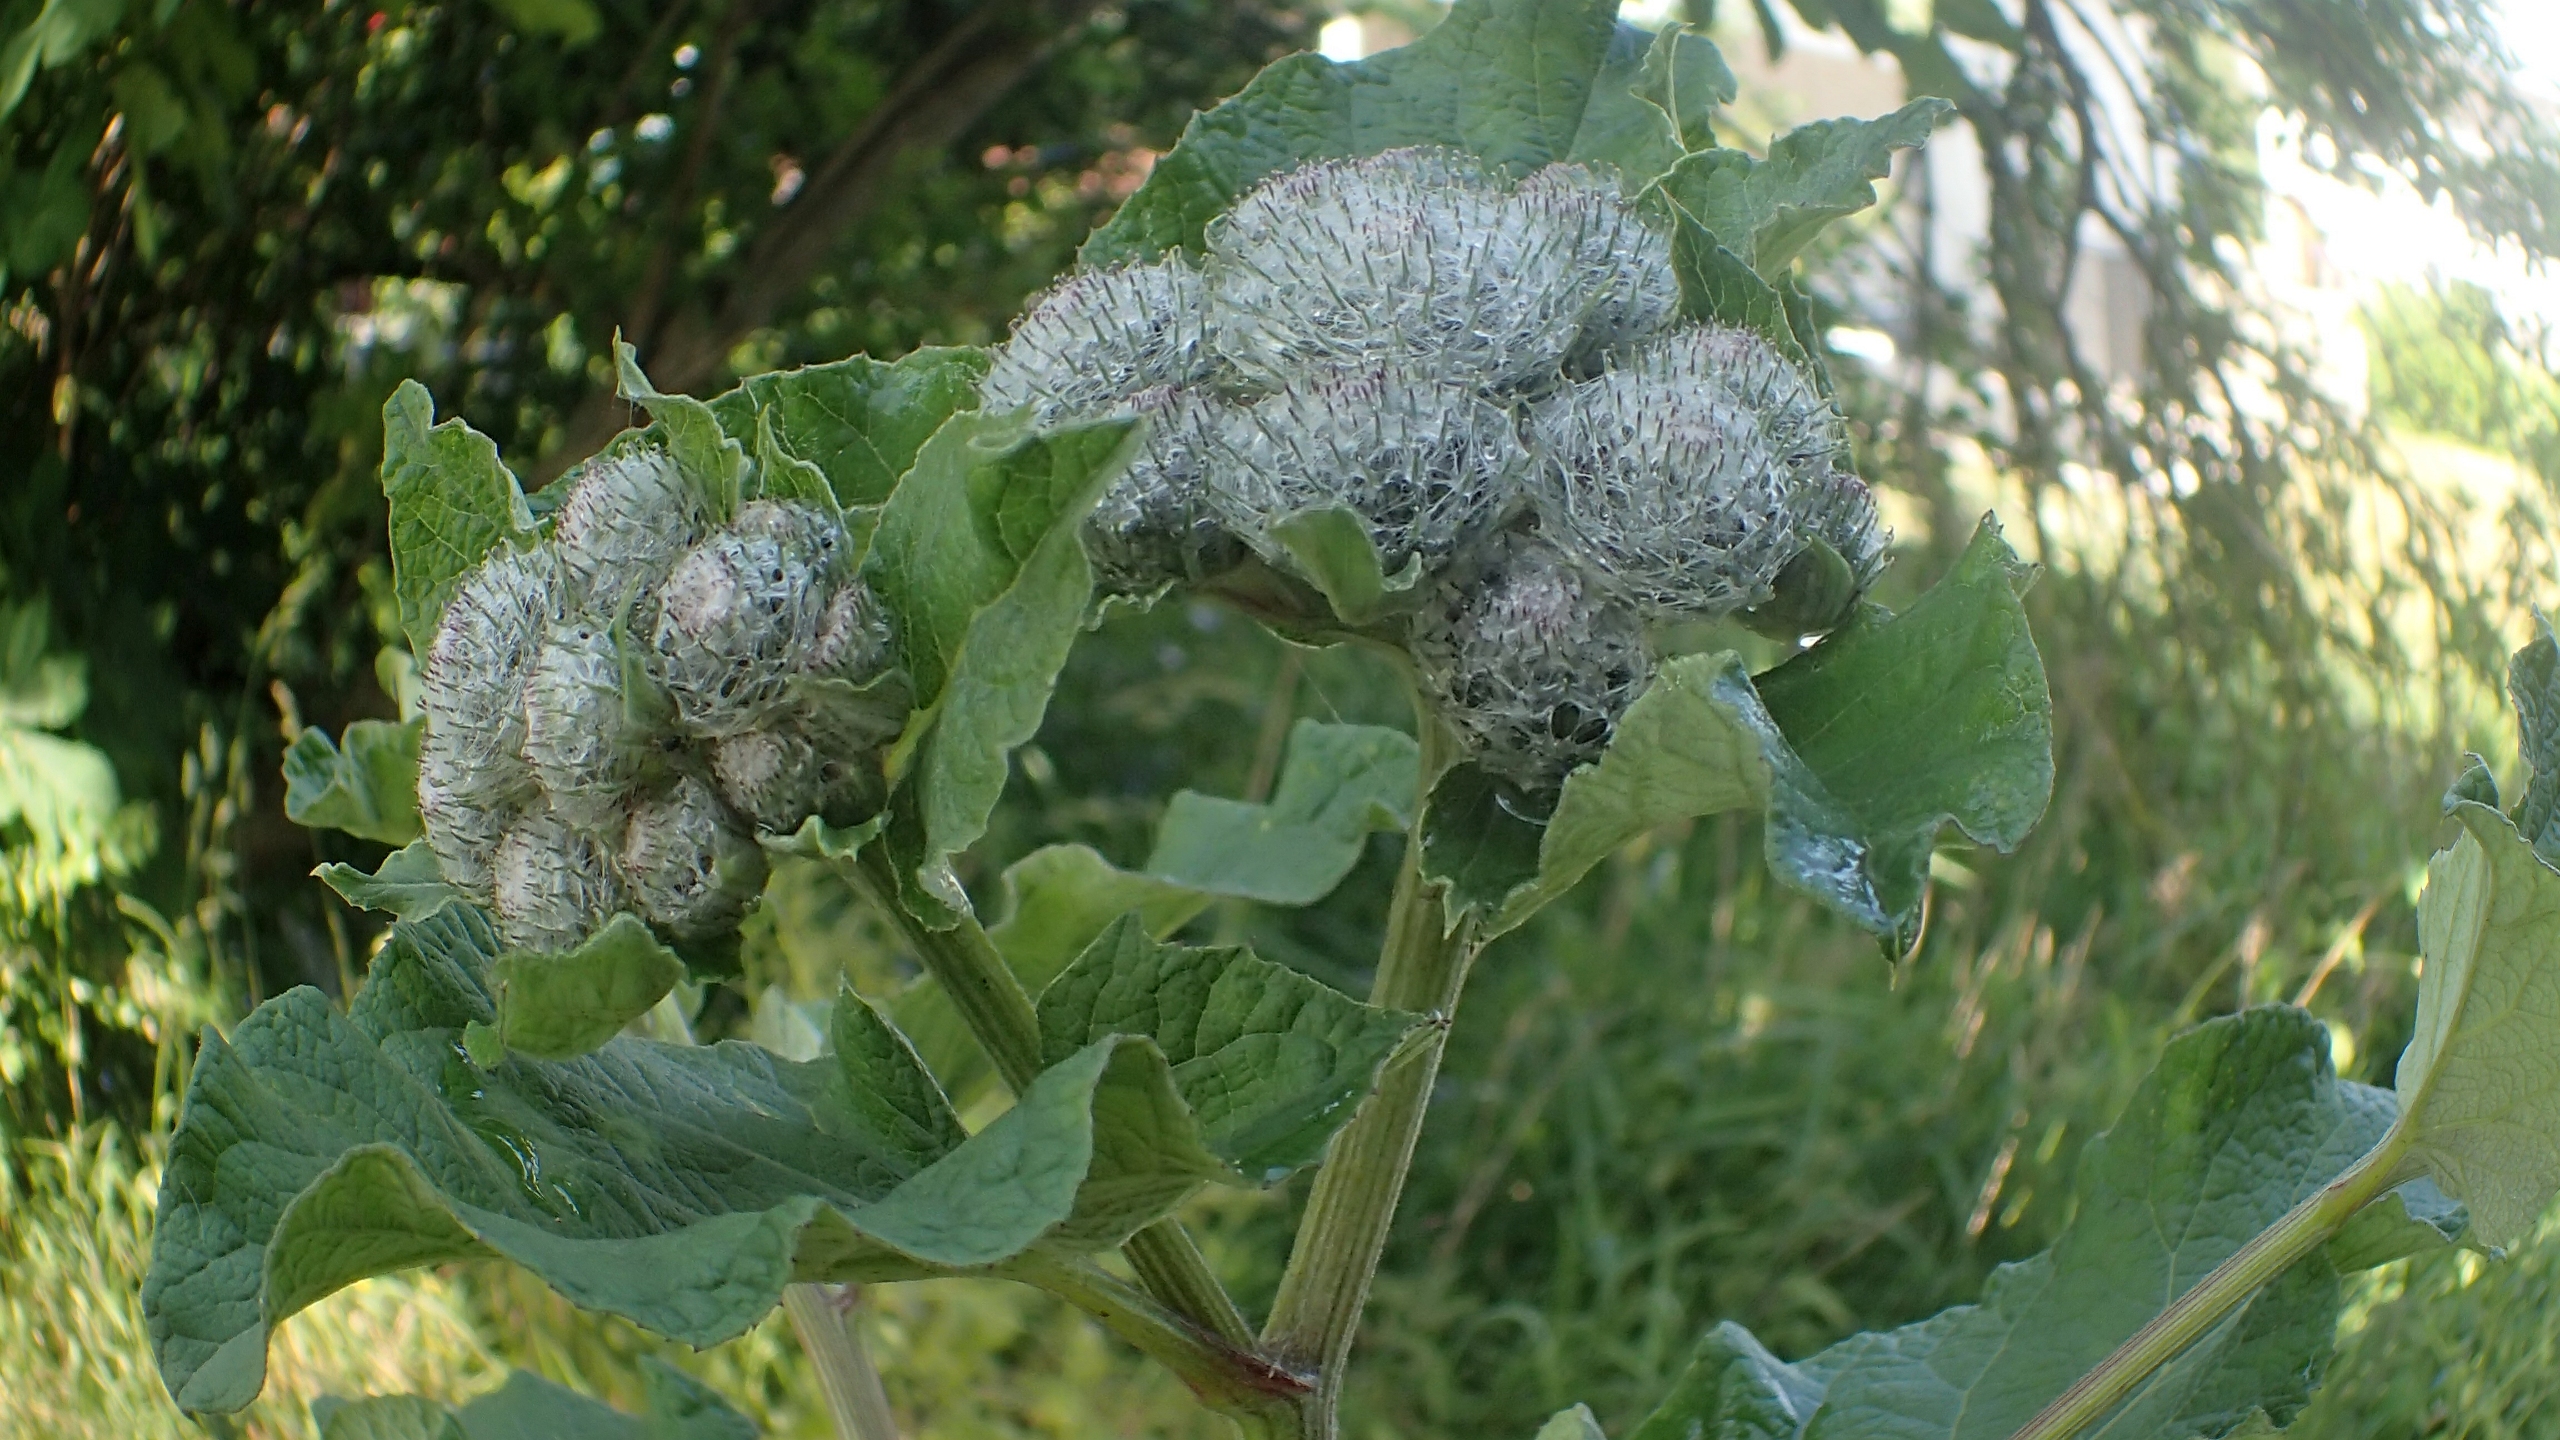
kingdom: Plantae
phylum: Tracheophyta
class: Magnoliopsida
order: Asterales
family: Asteraceae
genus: Arctium
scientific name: Arctium tomentosum
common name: Filtet burre
